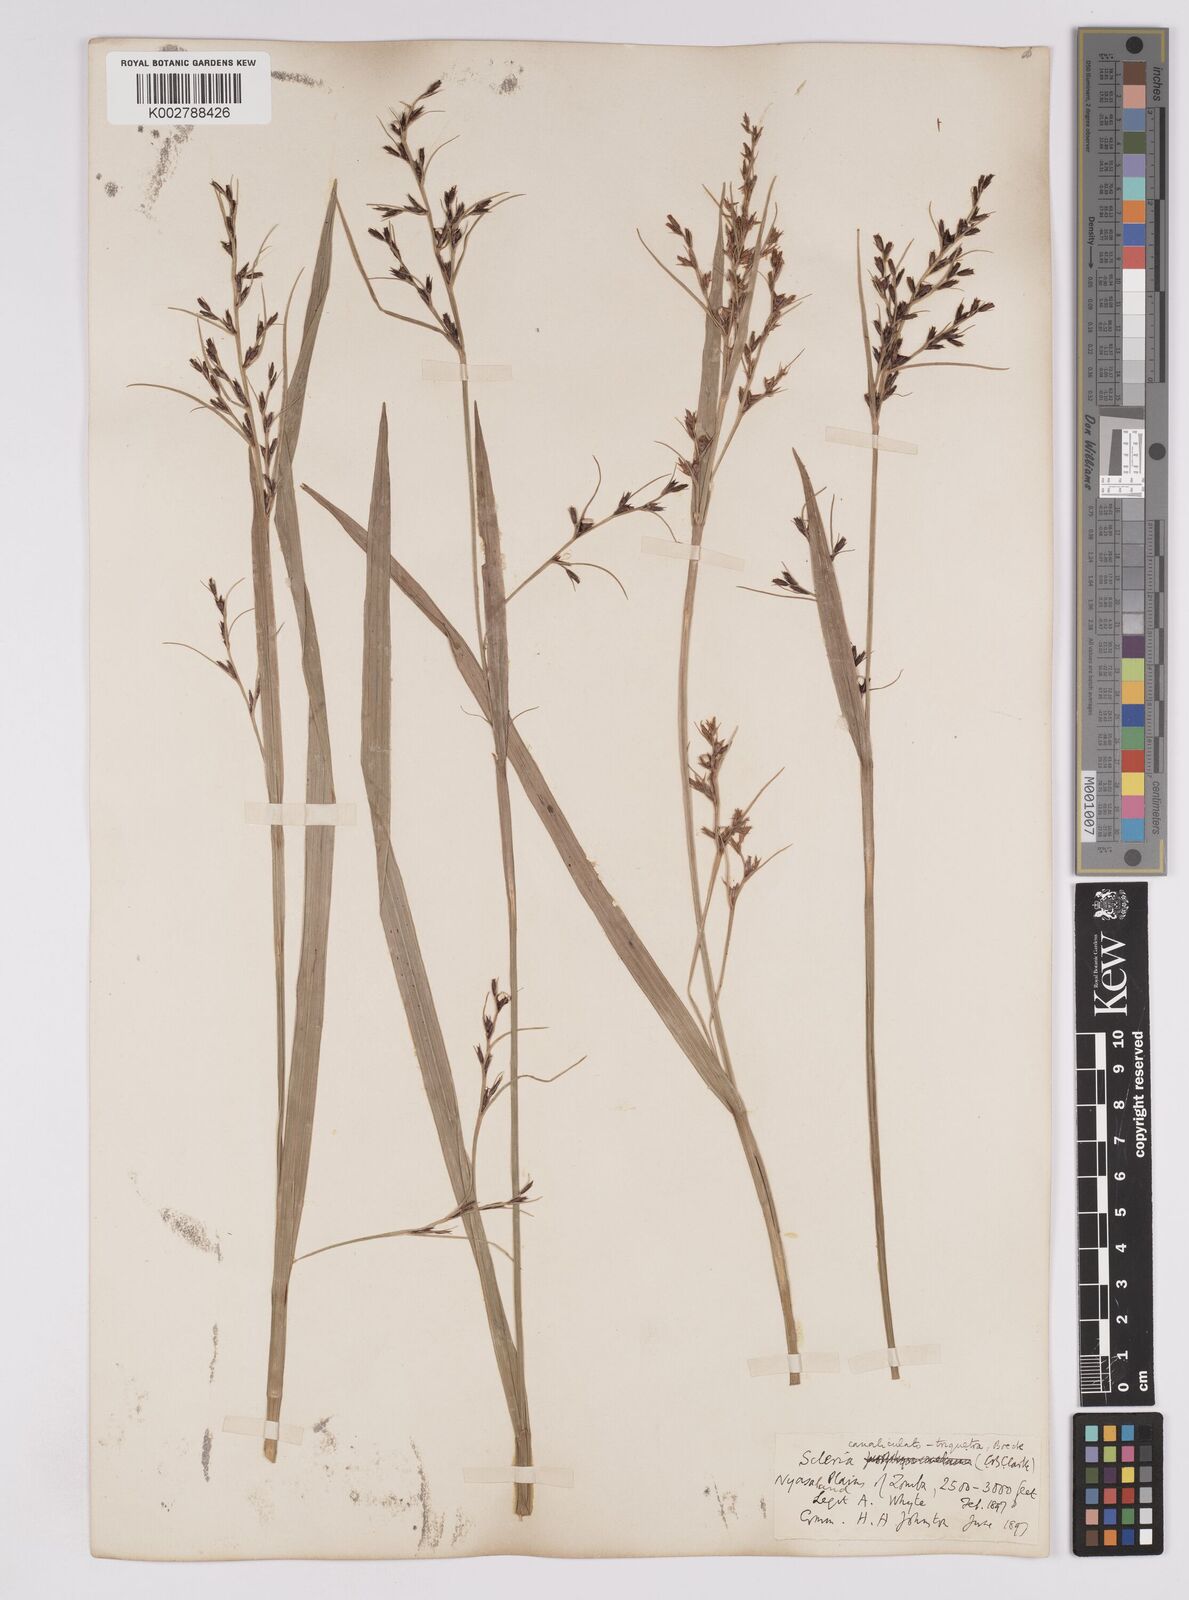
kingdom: Plantae
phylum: Tracheophyta
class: Liliopsida
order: Poales
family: Cyperaceae
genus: Scleria
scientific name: Scleria lagoensis
